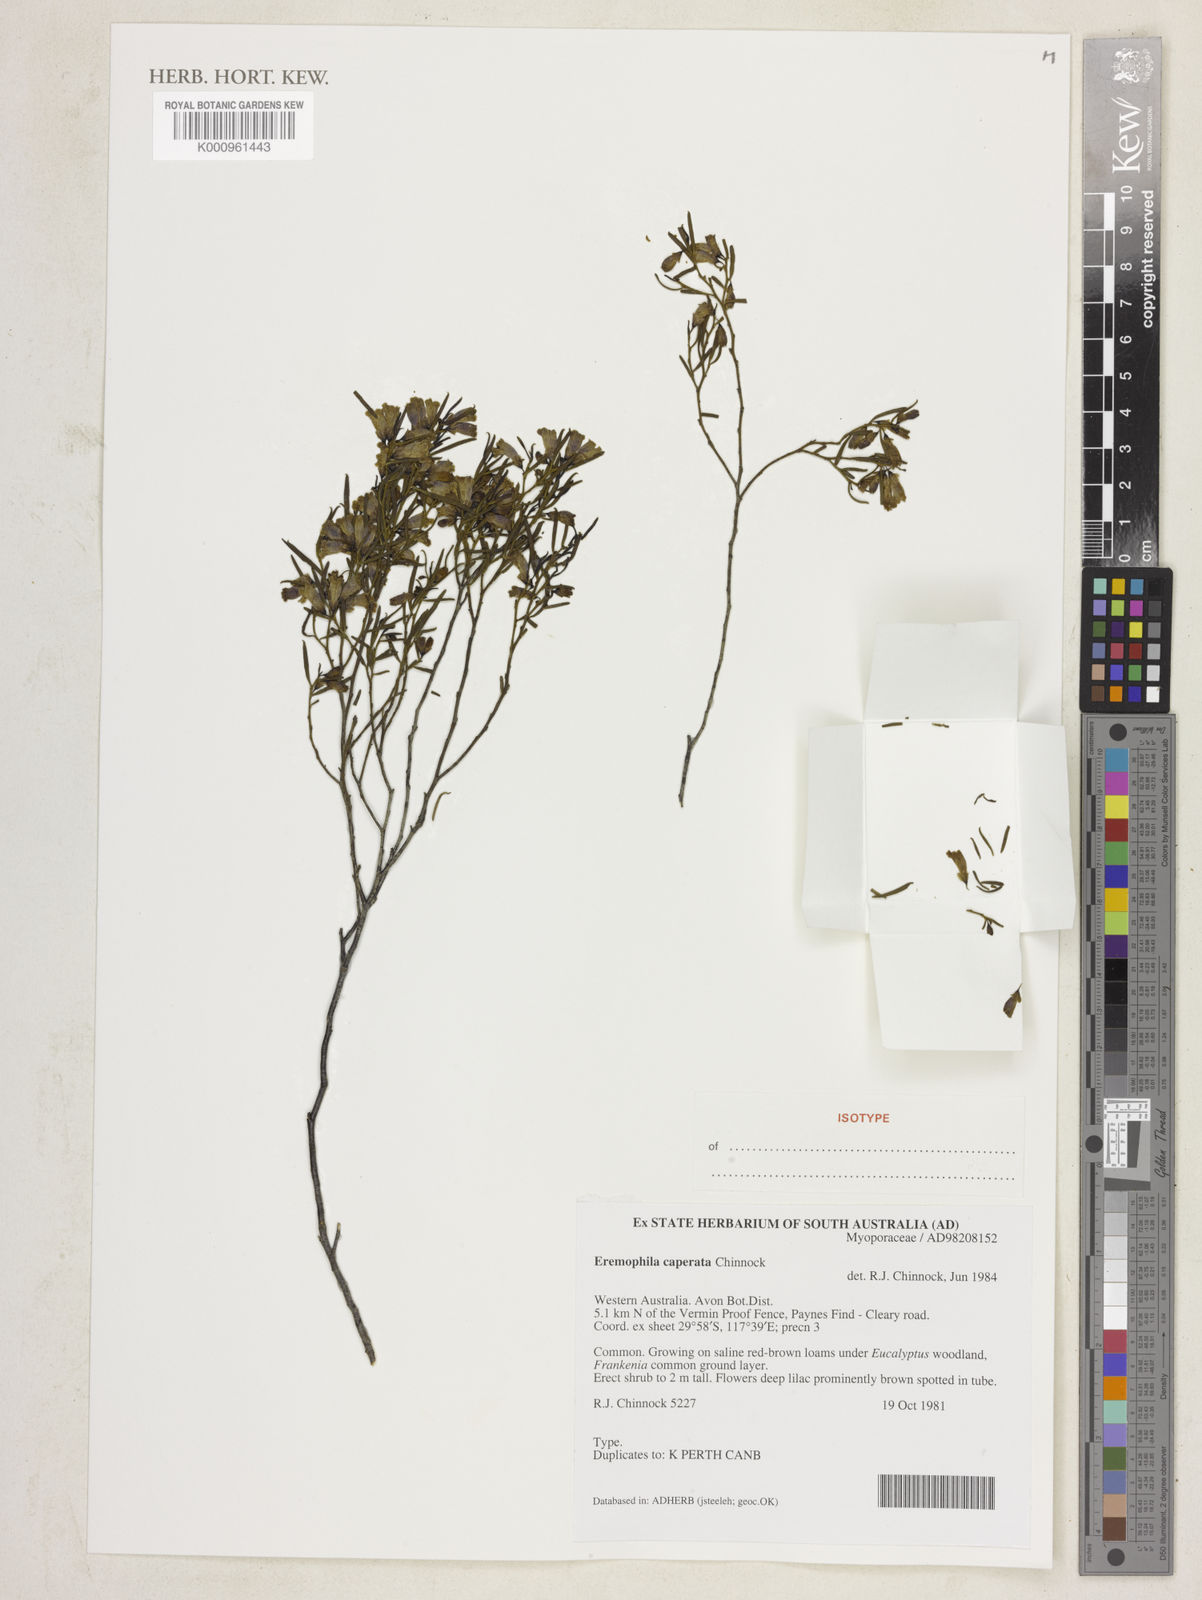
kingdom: Plantae
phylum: Tracheophyta
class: Magnoliopsida
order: Lamiales
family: Scrophulariaceae
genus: Eremophila
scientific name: Eremophila caperata
